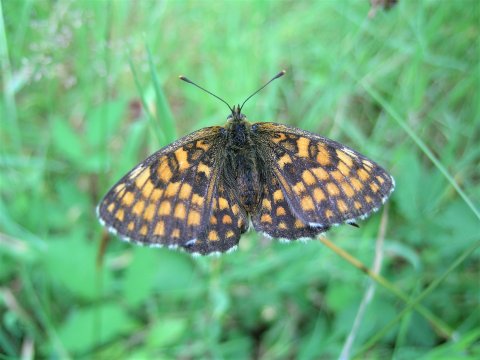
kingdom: Animalia
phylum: Arthropoda
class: Insecta
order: Lepidoptera
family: Nymphalidae
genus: Melitaea
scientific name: Melitaea athalia
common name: Heath Fritillary
